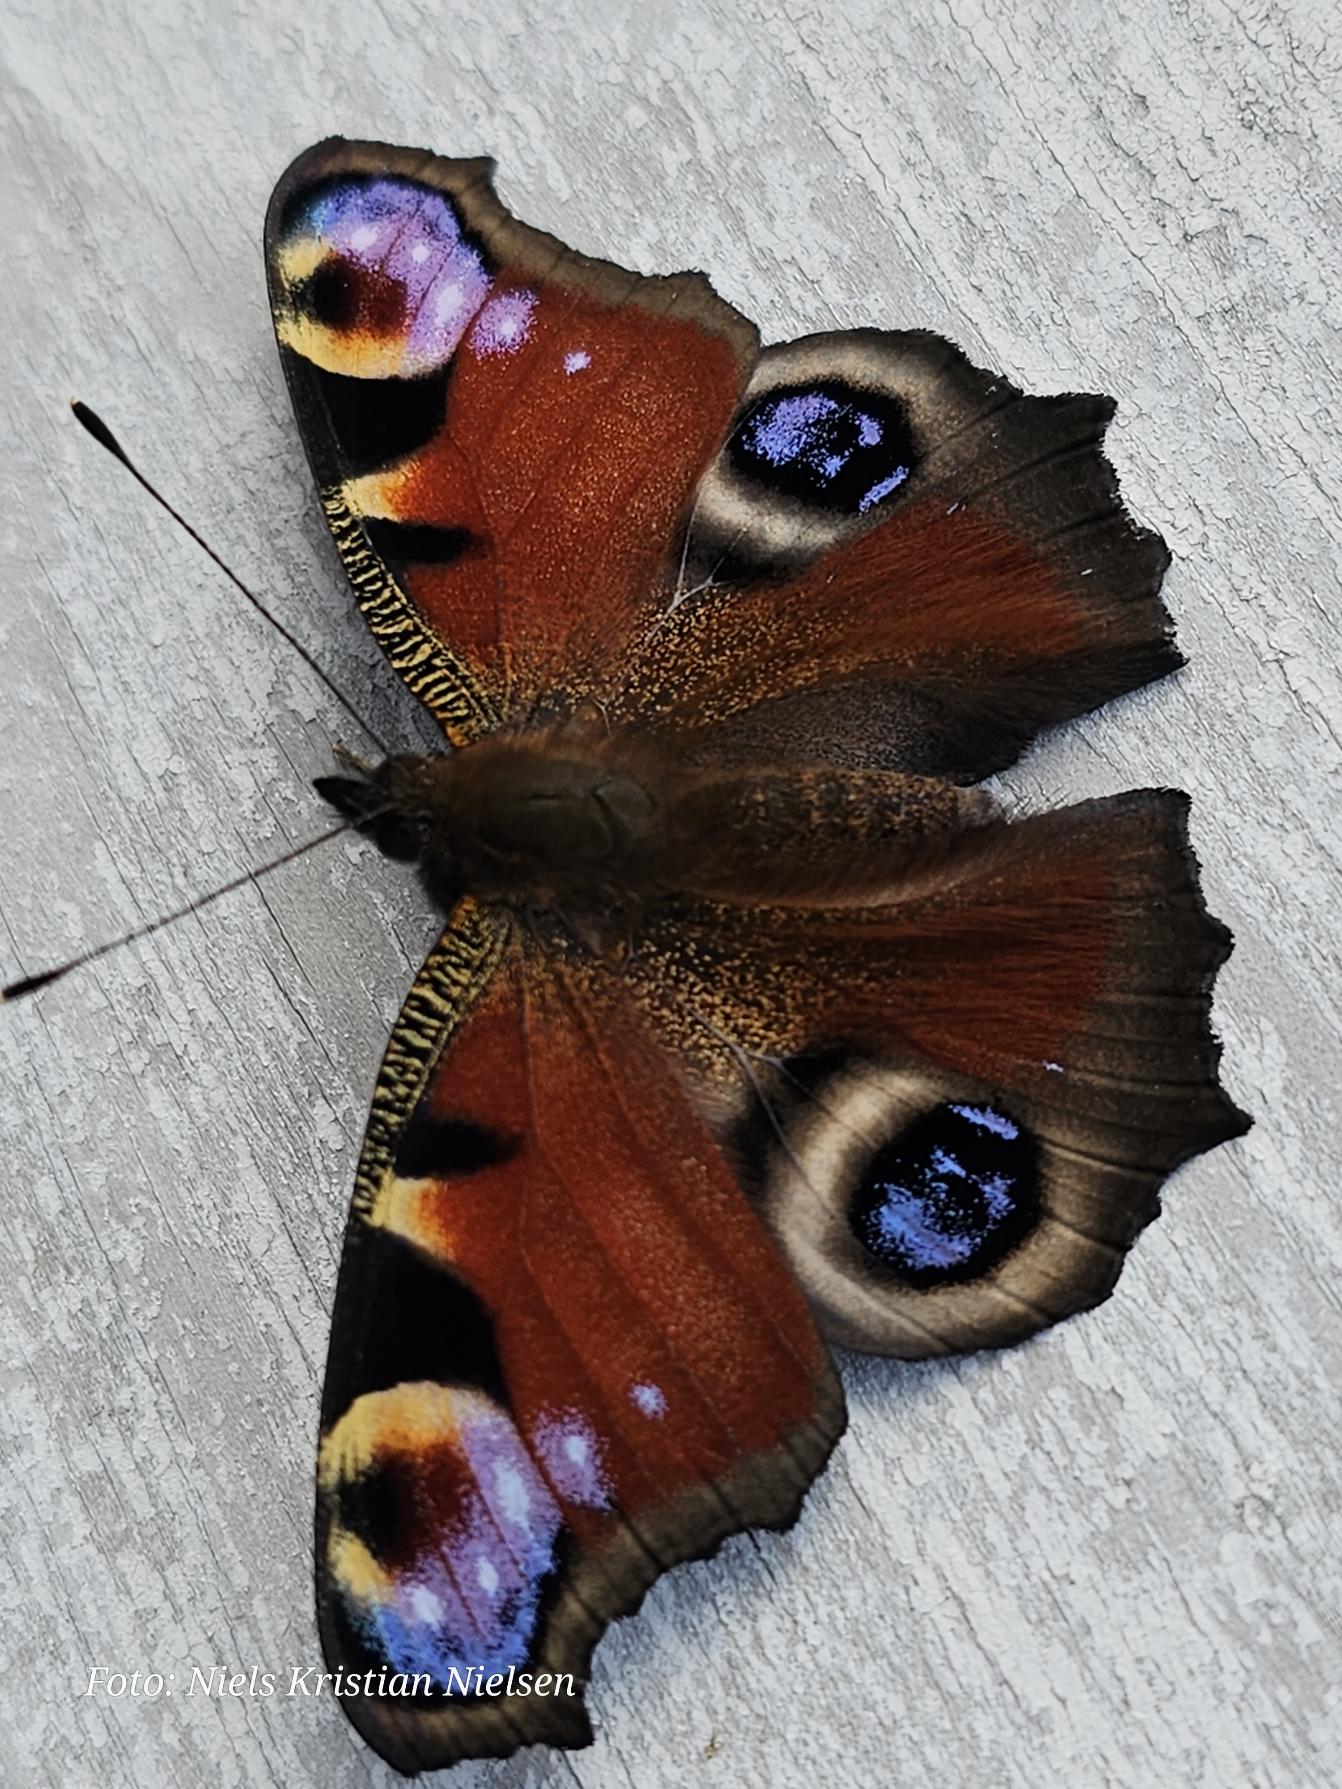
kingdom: Animalia
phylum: Arthropoda
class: Insecta
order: Lepidoptera
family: Nymphalidae
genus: Aglais
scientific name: Aglais io
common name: Dagpåfugleøje
